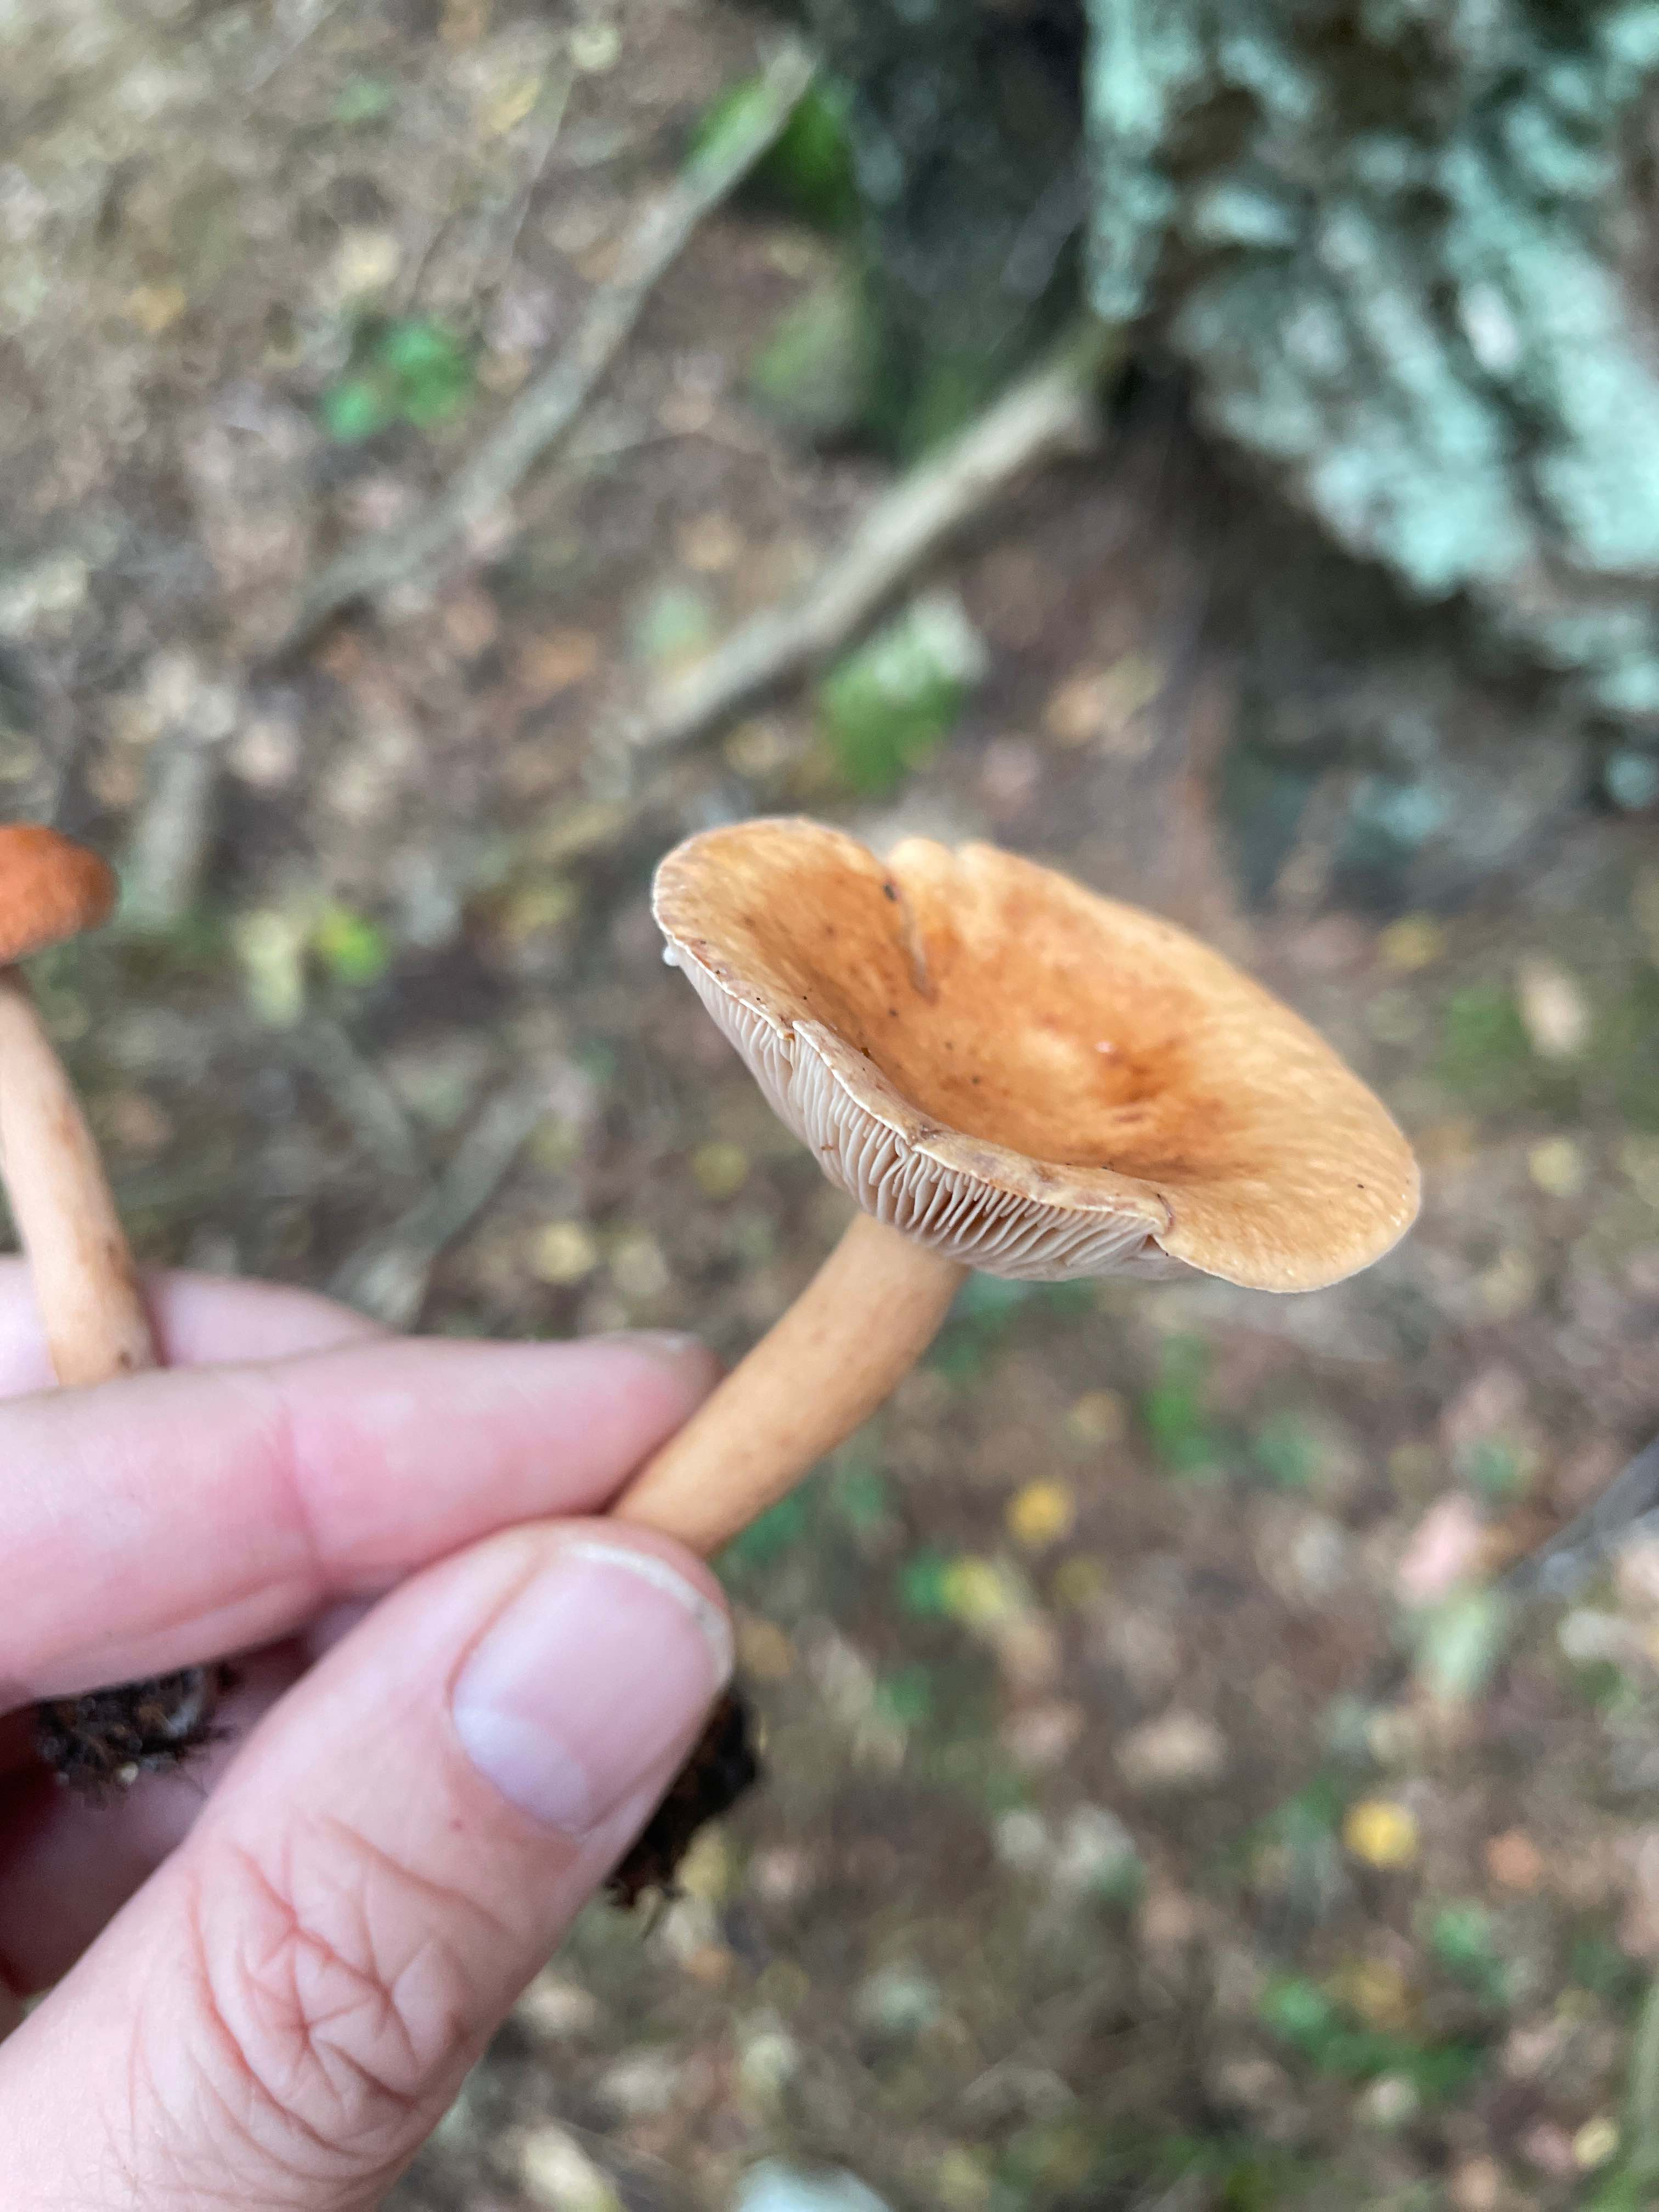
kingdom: Fungi
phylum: Basidiomycota
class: Agaricomycetes
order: Russulales
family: Russulaceae
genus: Lactarius
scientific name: Lactarius tabidus
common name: rynket mælkehat
